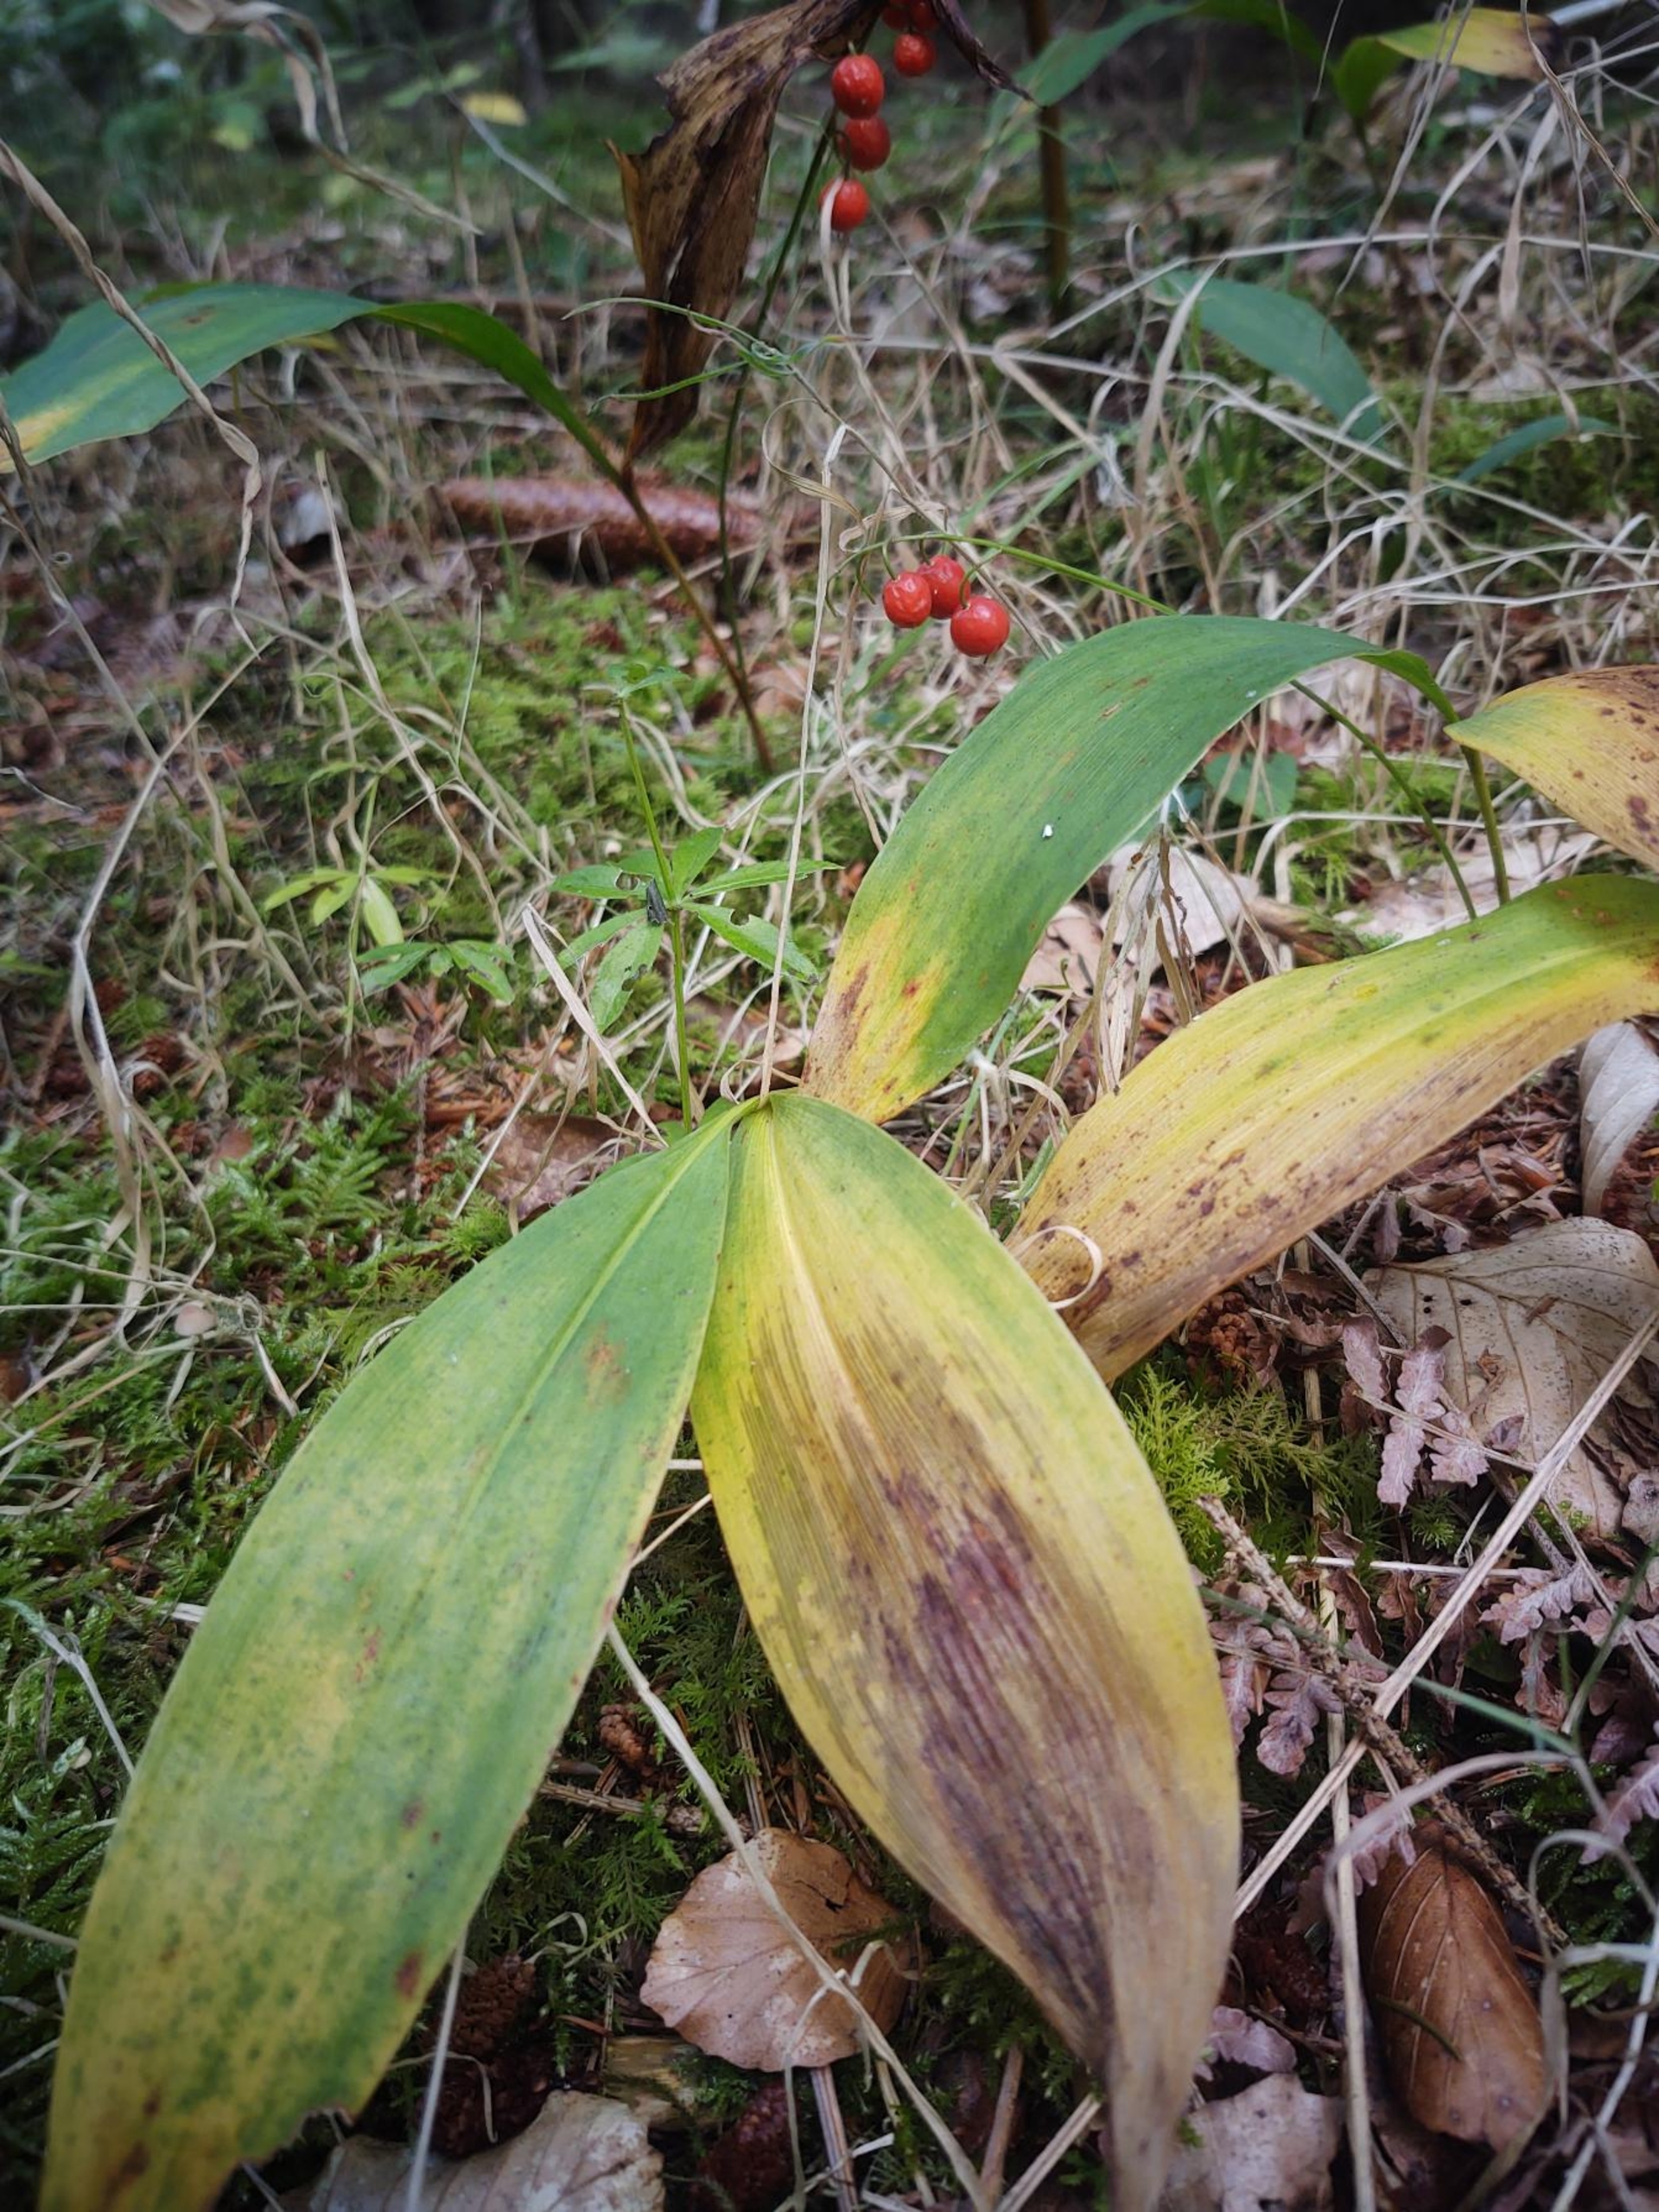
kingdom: Plantae
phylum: Tracheophyta
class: Liliopsida
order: Asparagales
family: Asparagaceae
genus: Convallaria
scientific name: Convallaria majalis
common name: Liljekonval
